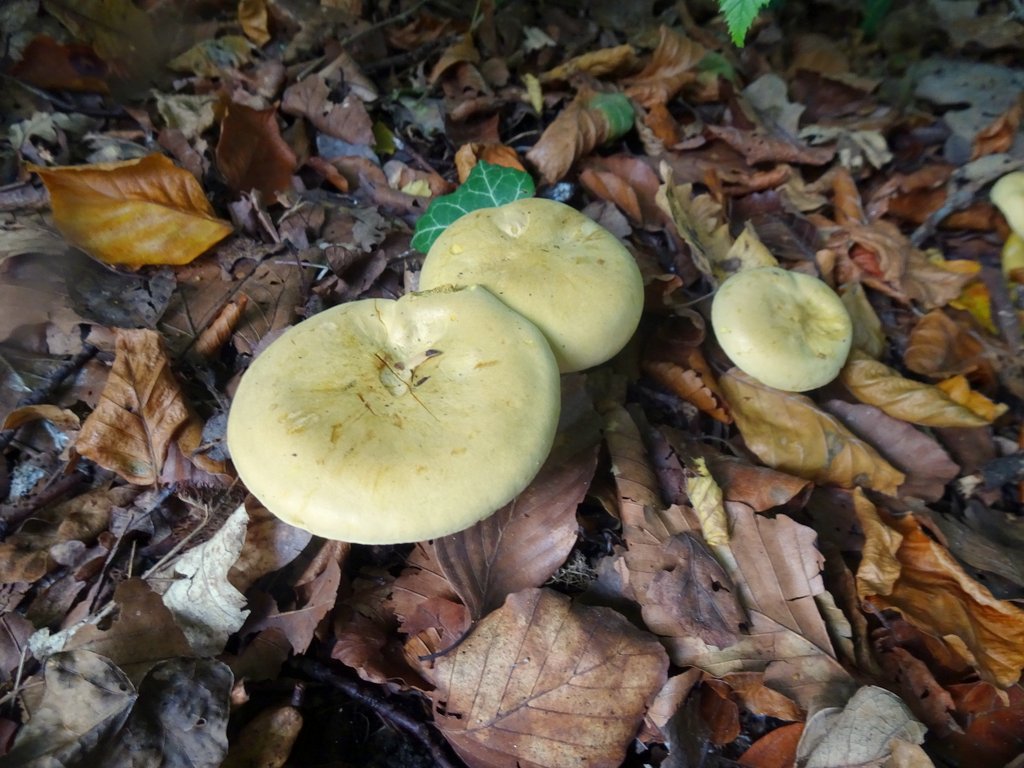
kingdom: Fungi
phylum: Basidiomycota
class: Agaricomycetes
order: Agaricales
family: Tricholomataceae
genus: Tricholoma
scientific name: Tricholoma sulphureum
